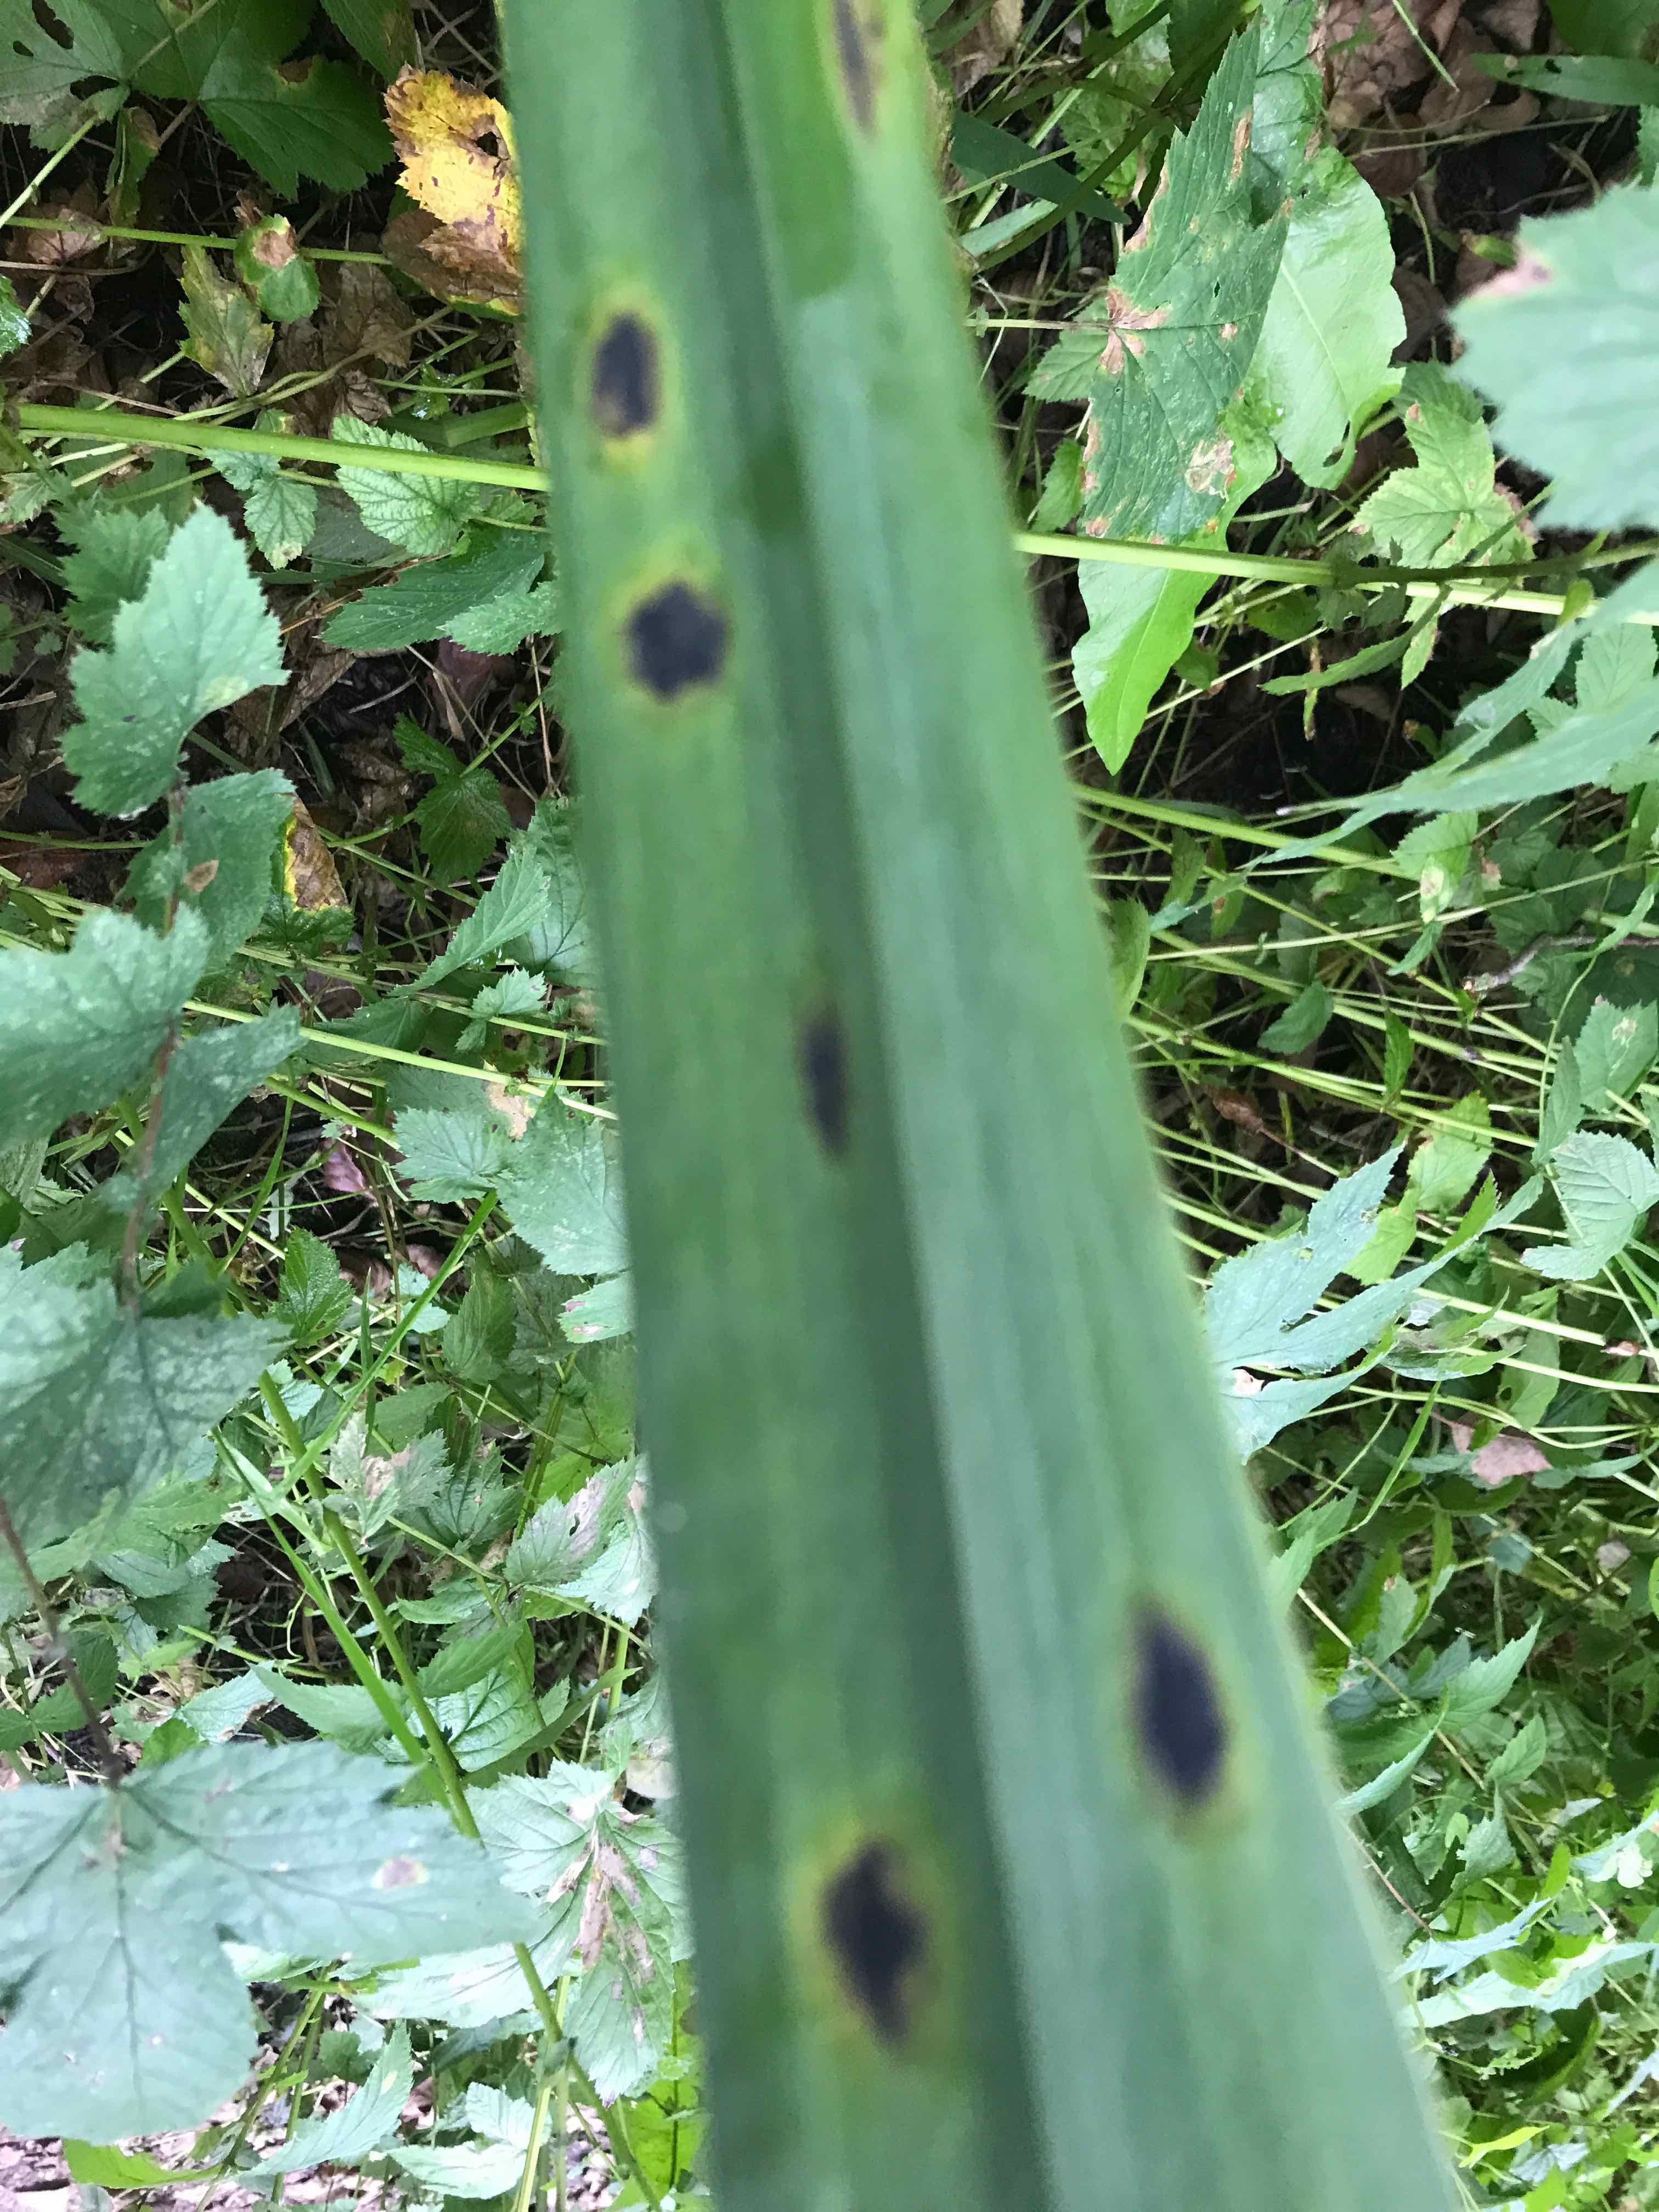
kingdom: Fungi
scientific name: Fungi
